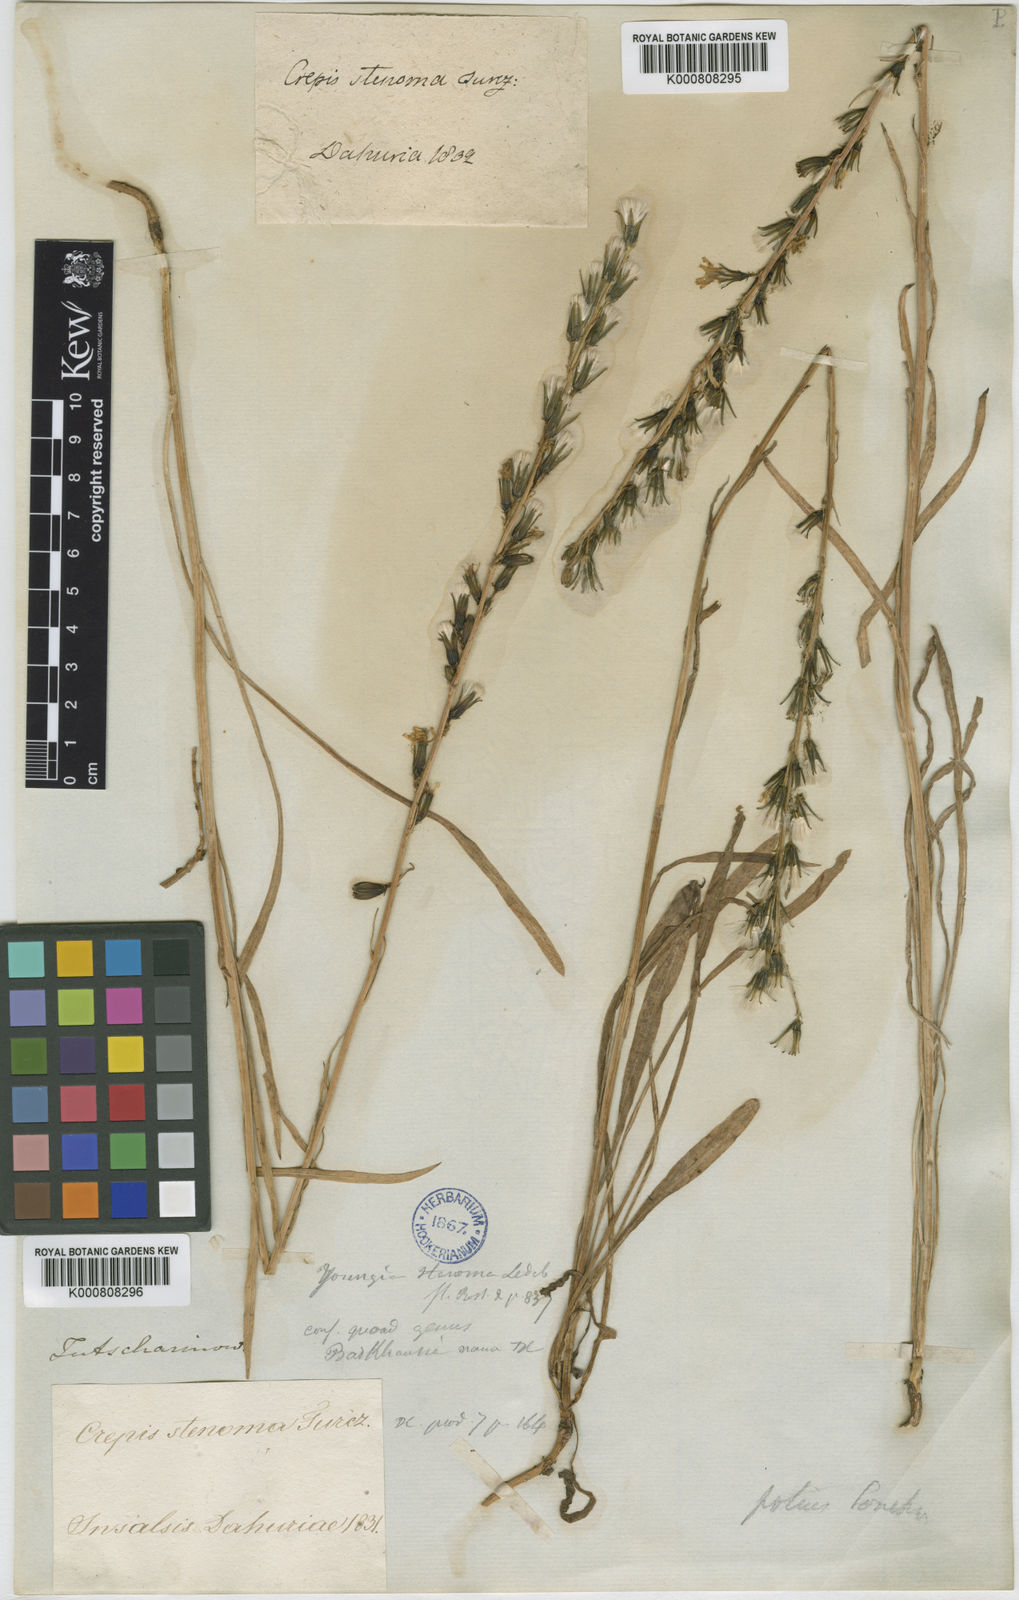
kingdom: Plantae
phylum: Tracheophyta
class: Magnoliopsida
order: Asterales
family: Asteraceae
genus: Sonchella
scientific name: Sonchella stenoma
